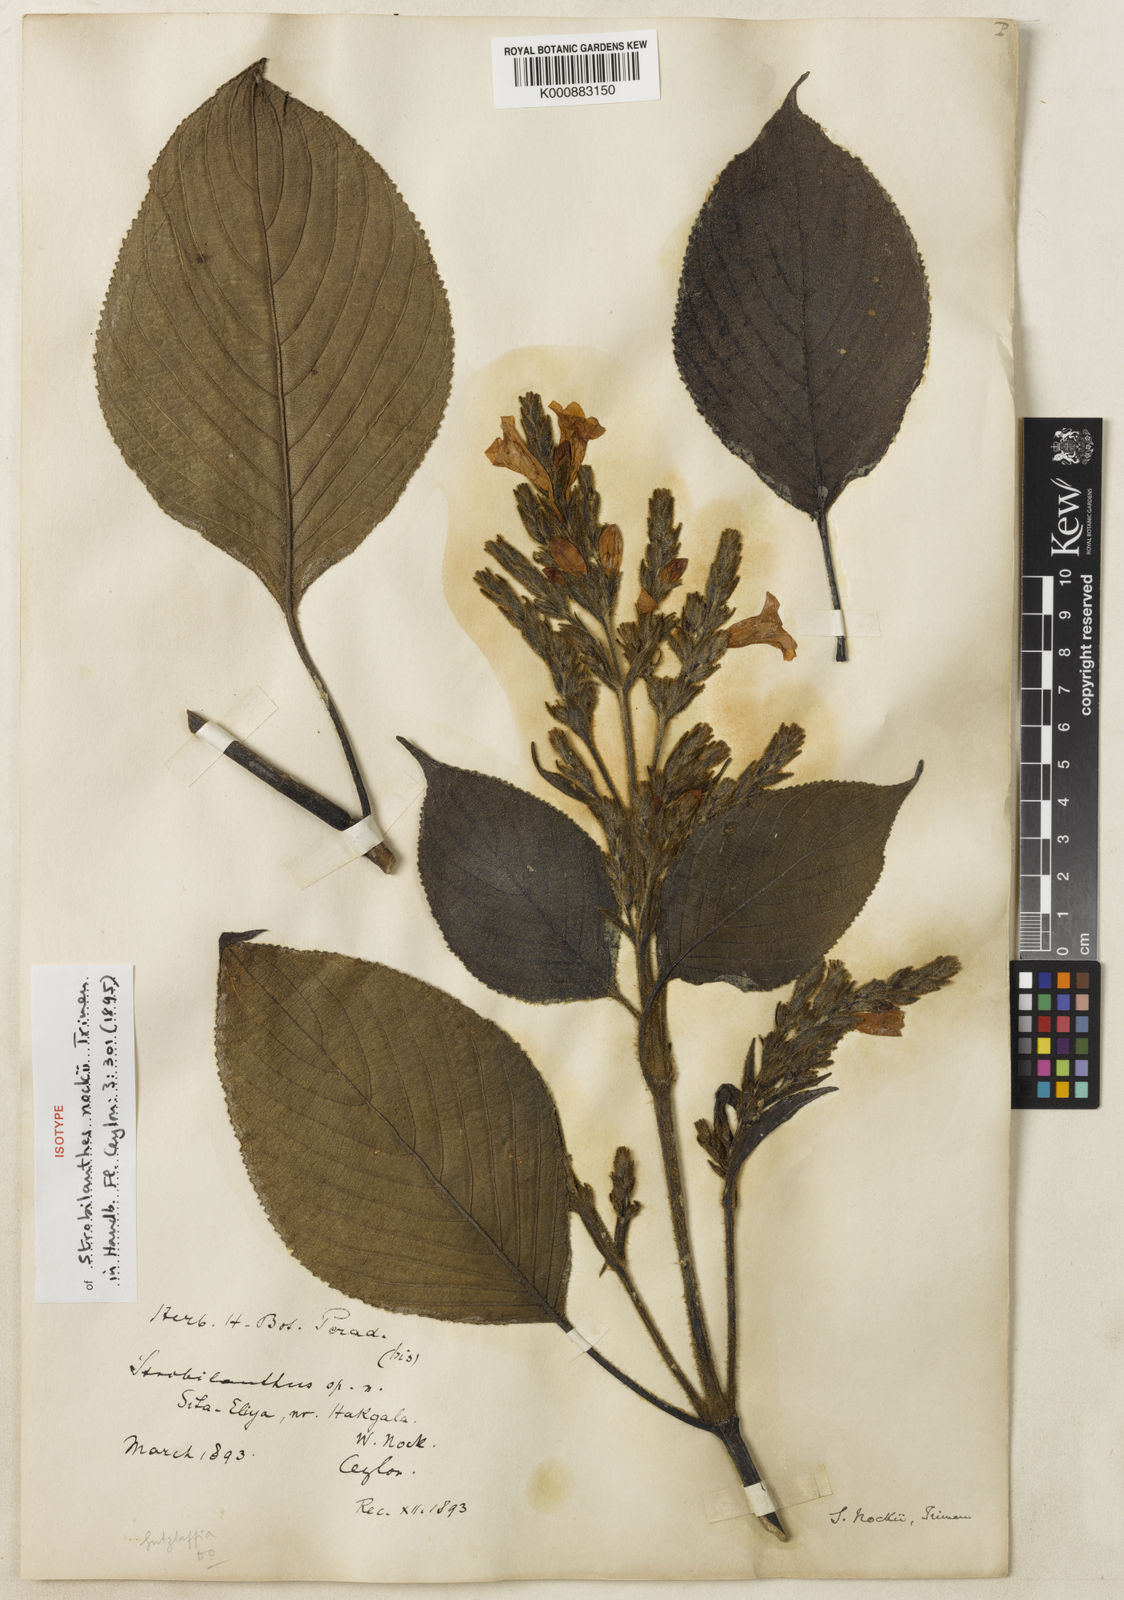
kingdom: Plantae
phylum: Tracheophyta
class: Magnoliopsida
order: Lamiales
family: Acanthaceae
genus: Strobilanthes
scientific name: Strobilanthes
